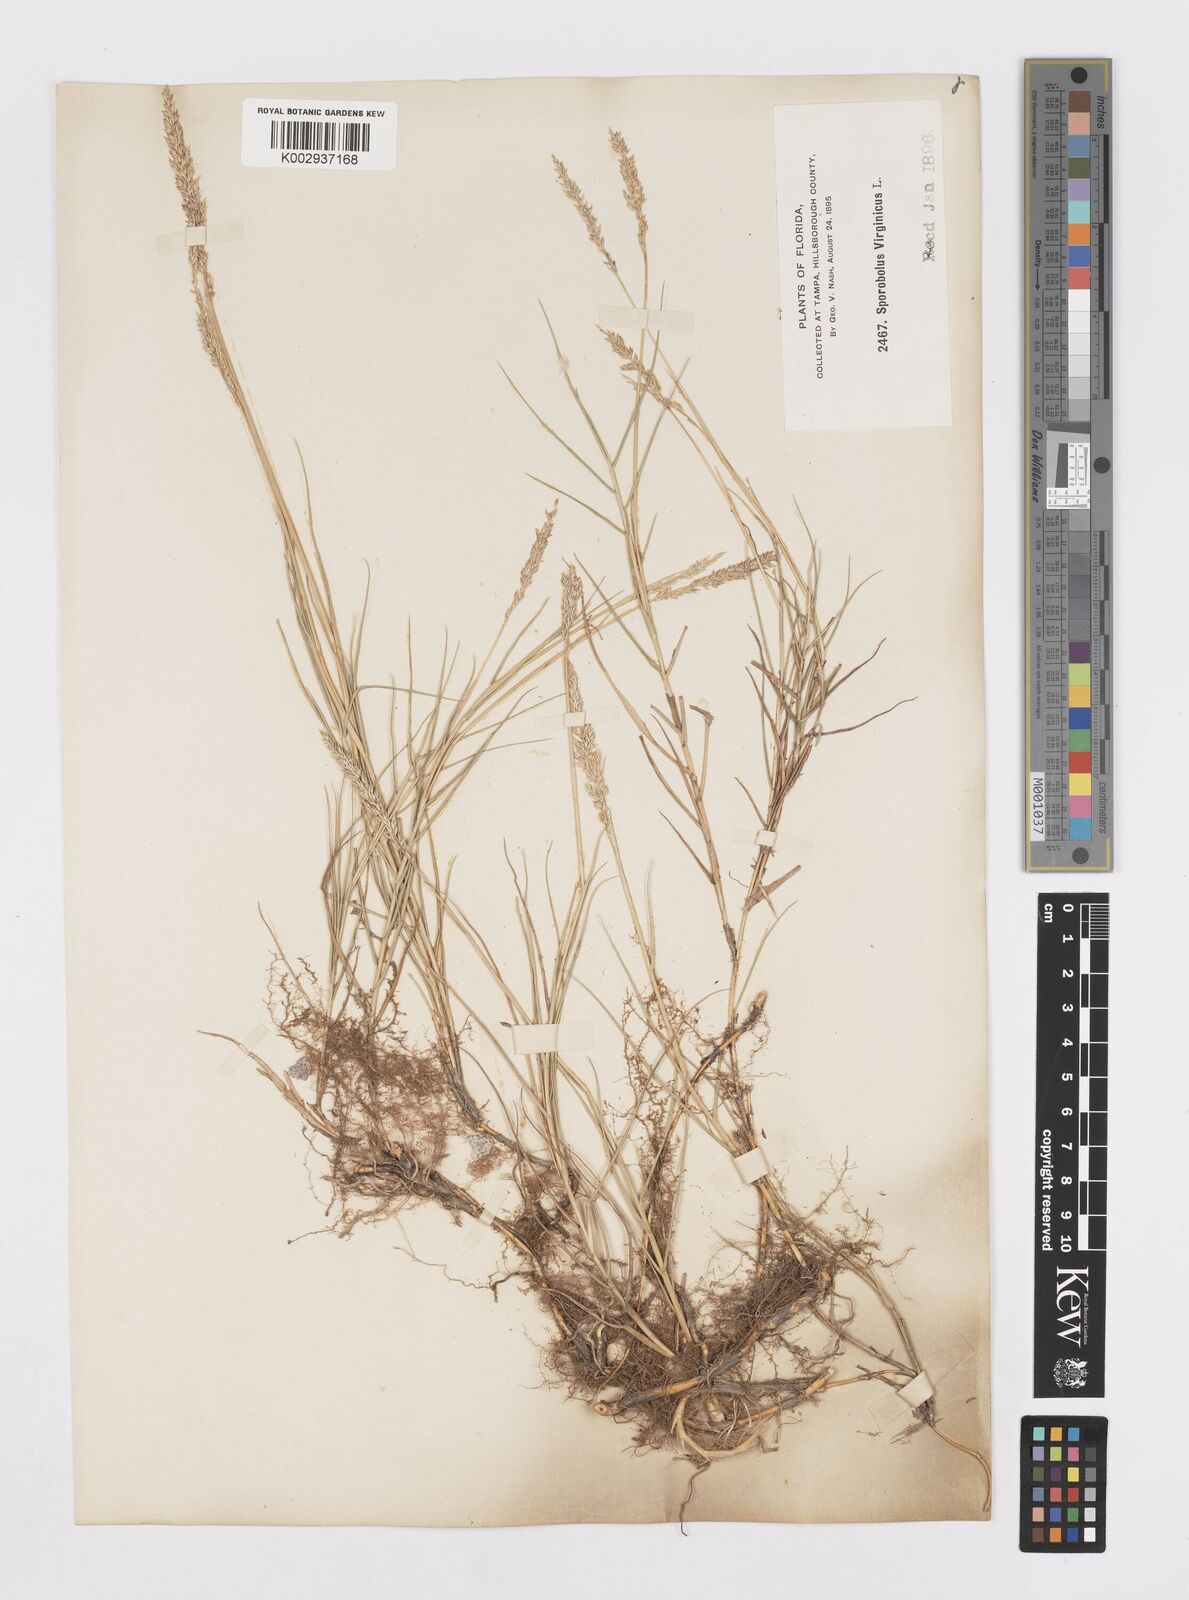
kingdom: Plantae
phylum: Tracheophyta
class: Liliopsida
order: Poales
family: Poaceae
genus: Sporobolus
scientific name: Sporobolus virginicus
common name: Beach dropseed
